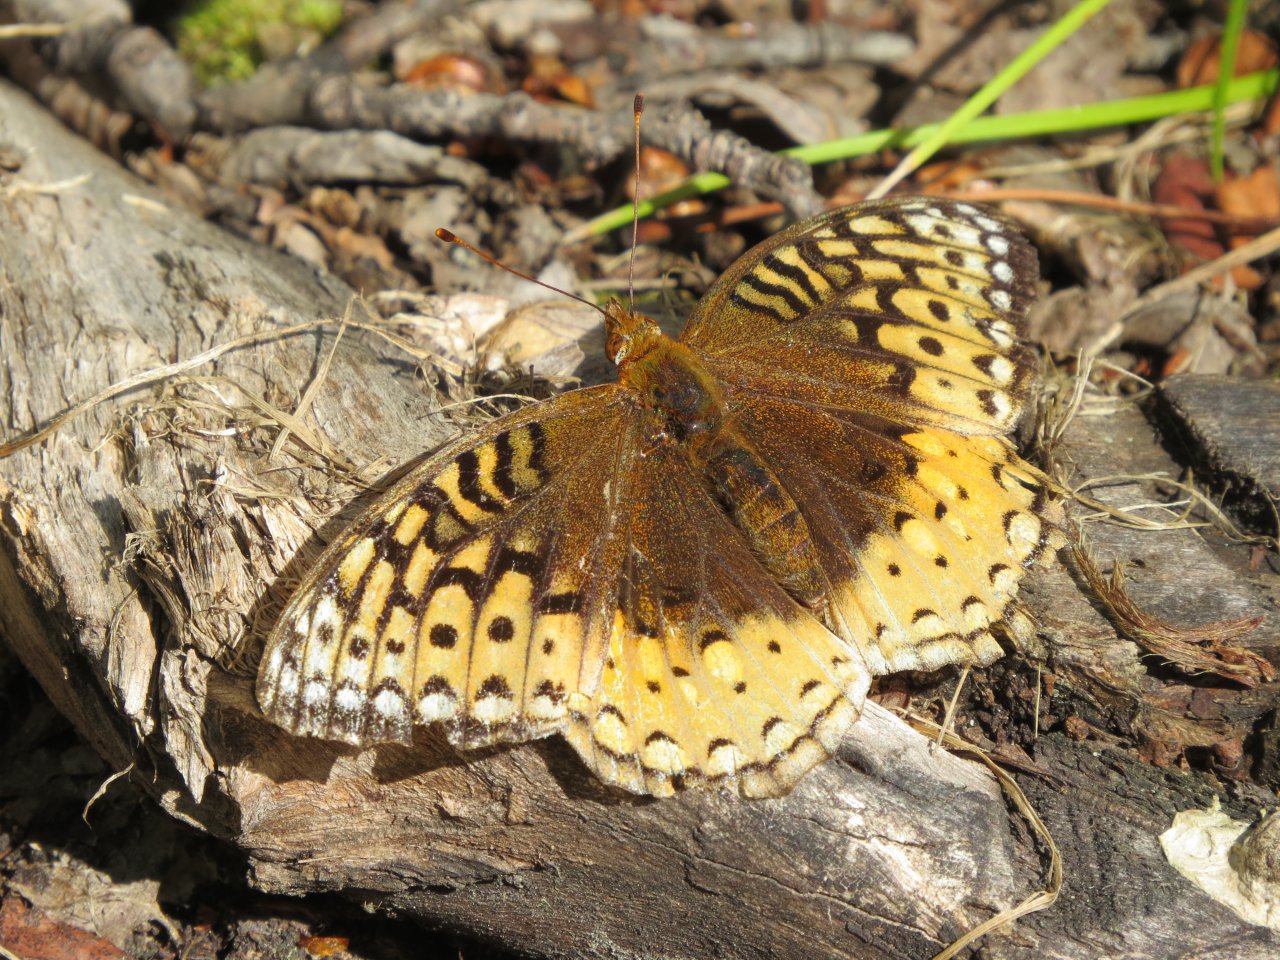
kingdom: Animalia
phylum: Arthropoda
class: Insecta
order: Lepidoptera
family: Nymphalidae
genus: Speyeria
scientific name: Speyeria cybele
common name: Great Spangled Fritillary
